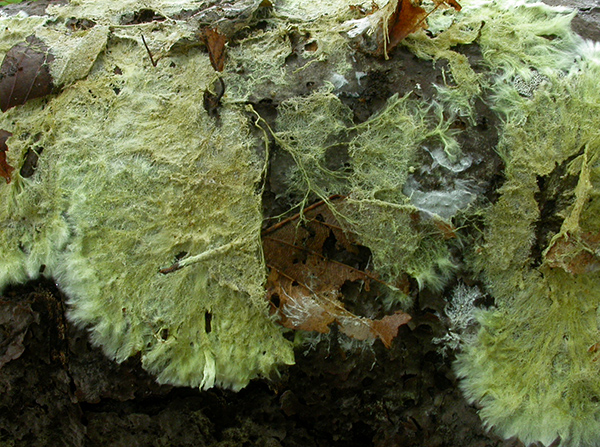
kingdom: Fungi
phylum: Basidiomycota
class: Agaricomycetes
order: Russulales
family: Xenasmataceae
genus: Xenasmatella
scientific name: Xenasmatella vaga
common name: svovl-strenghinde
